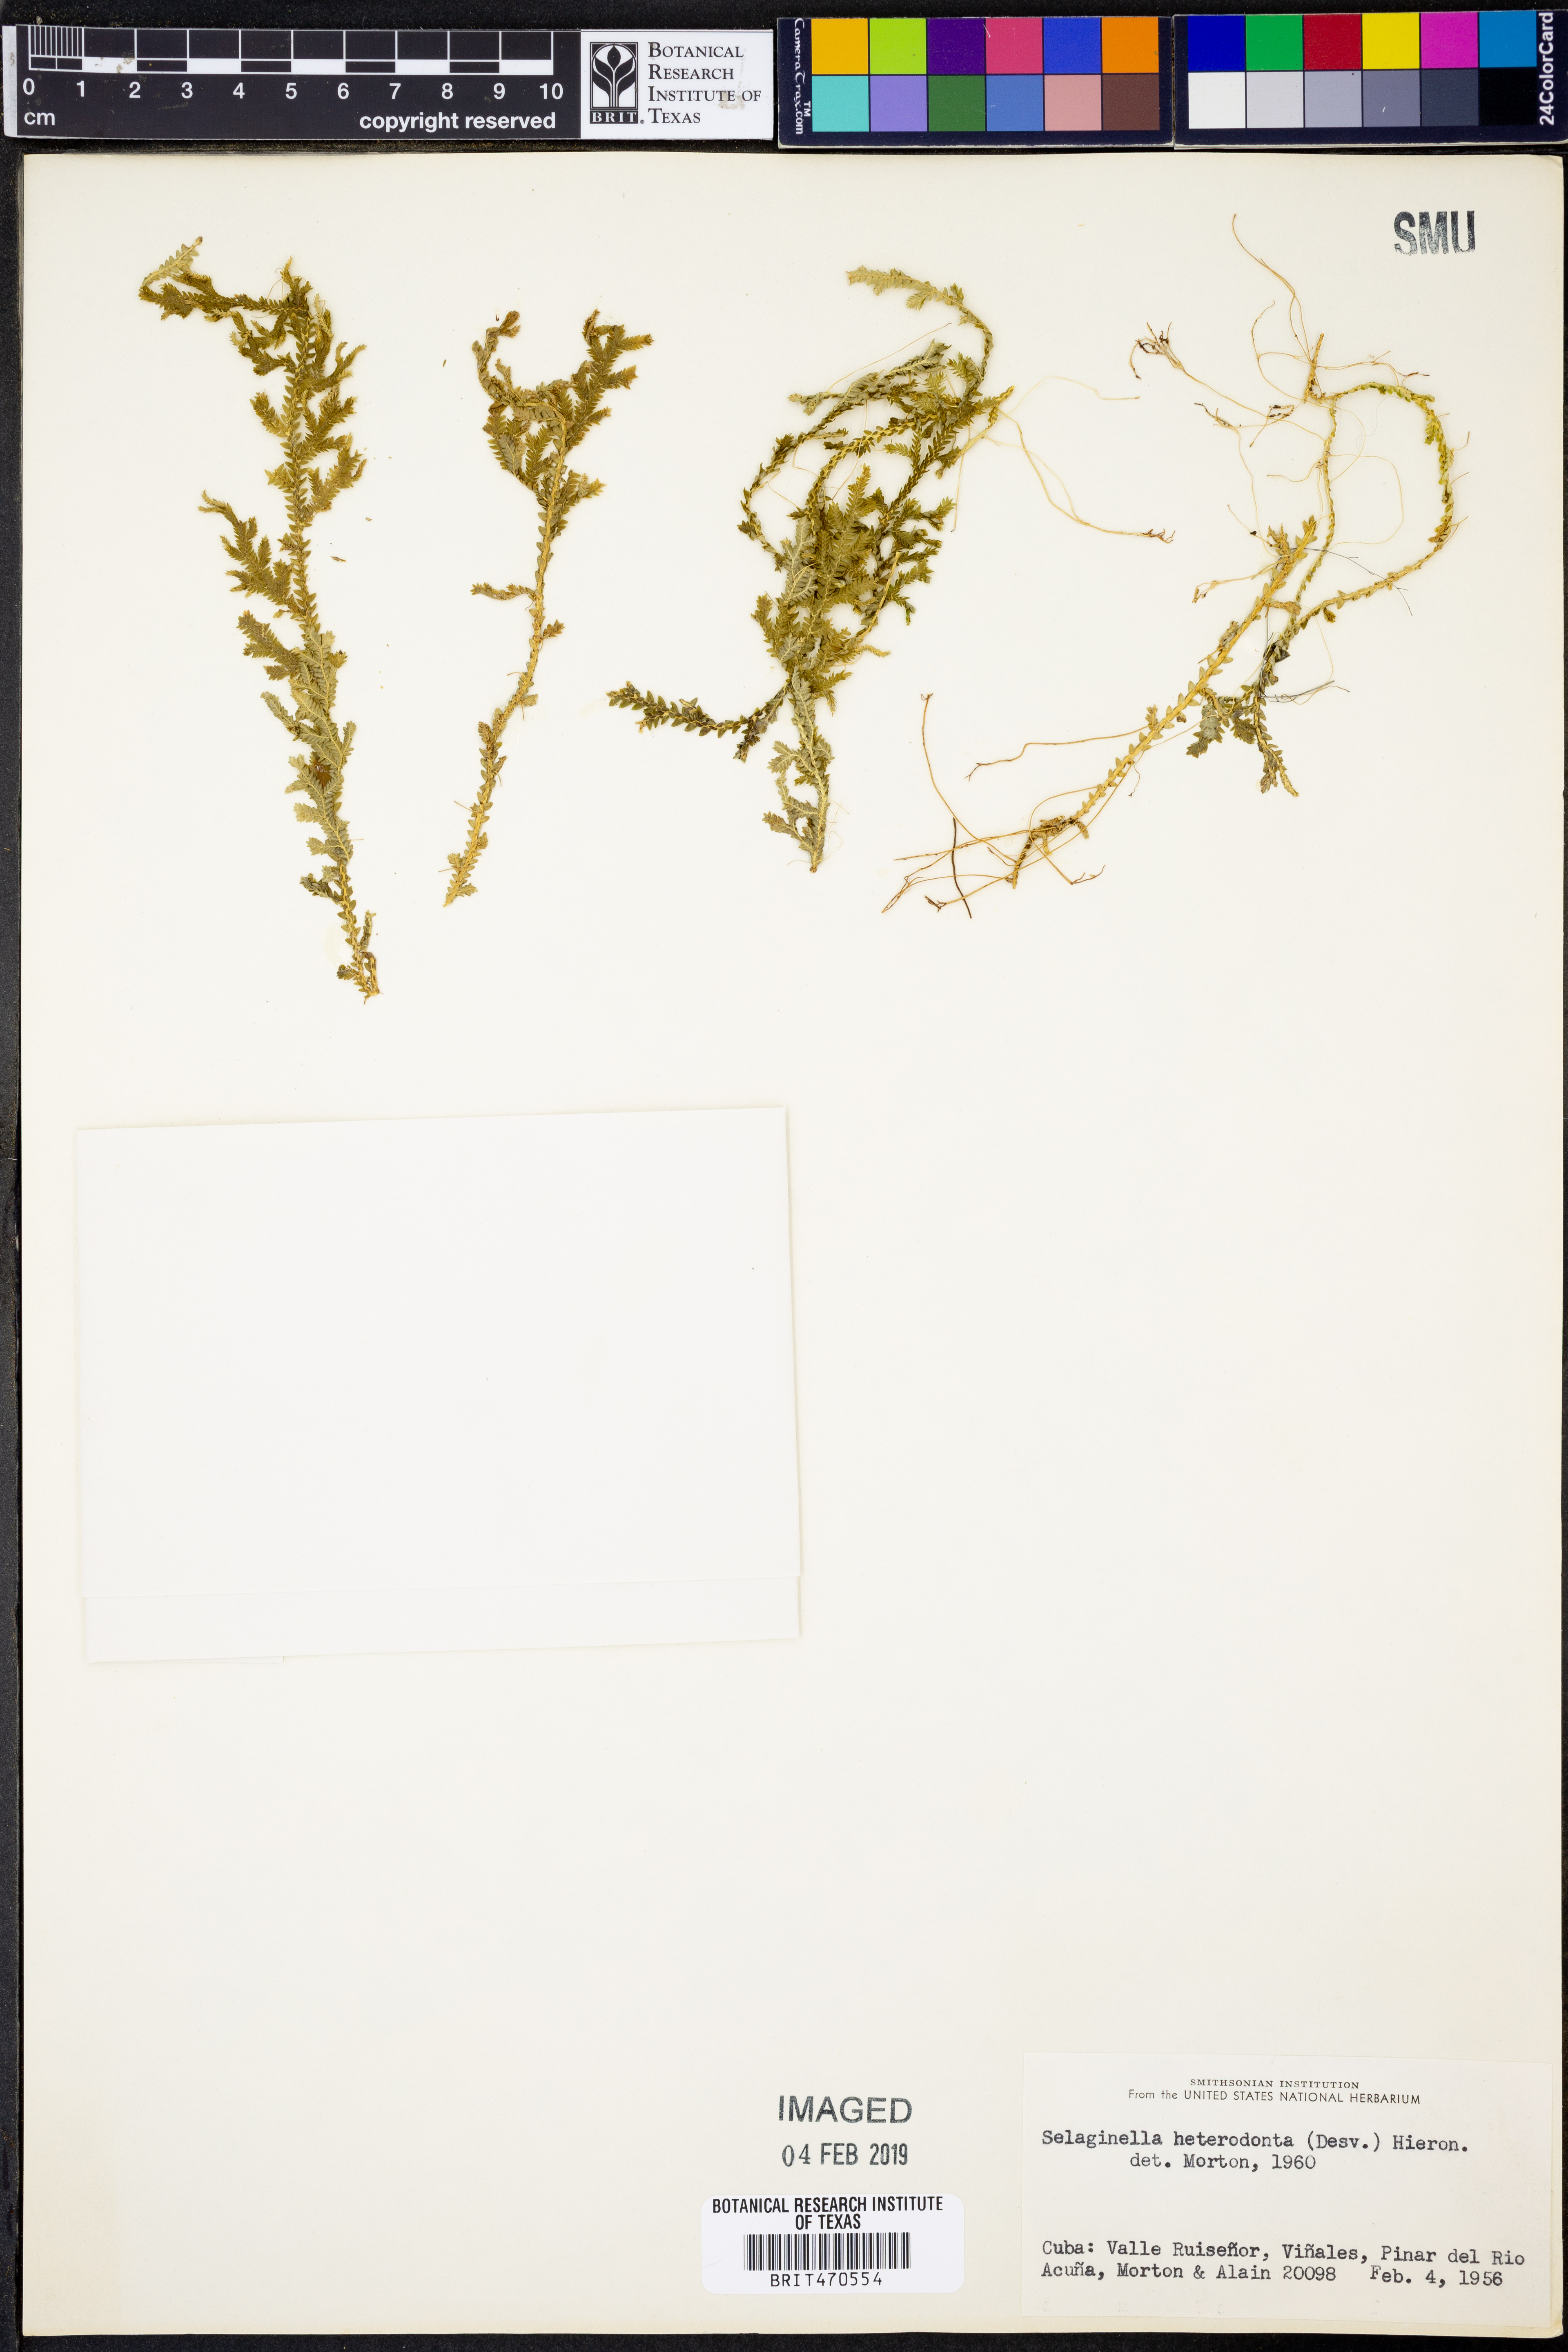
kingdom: Plantae
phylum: Tracheophyta
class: Lycopodiopsida
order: Selaginellales
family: Selaginellaceae
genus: Selaginella
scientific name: Selaginella heterodonta
